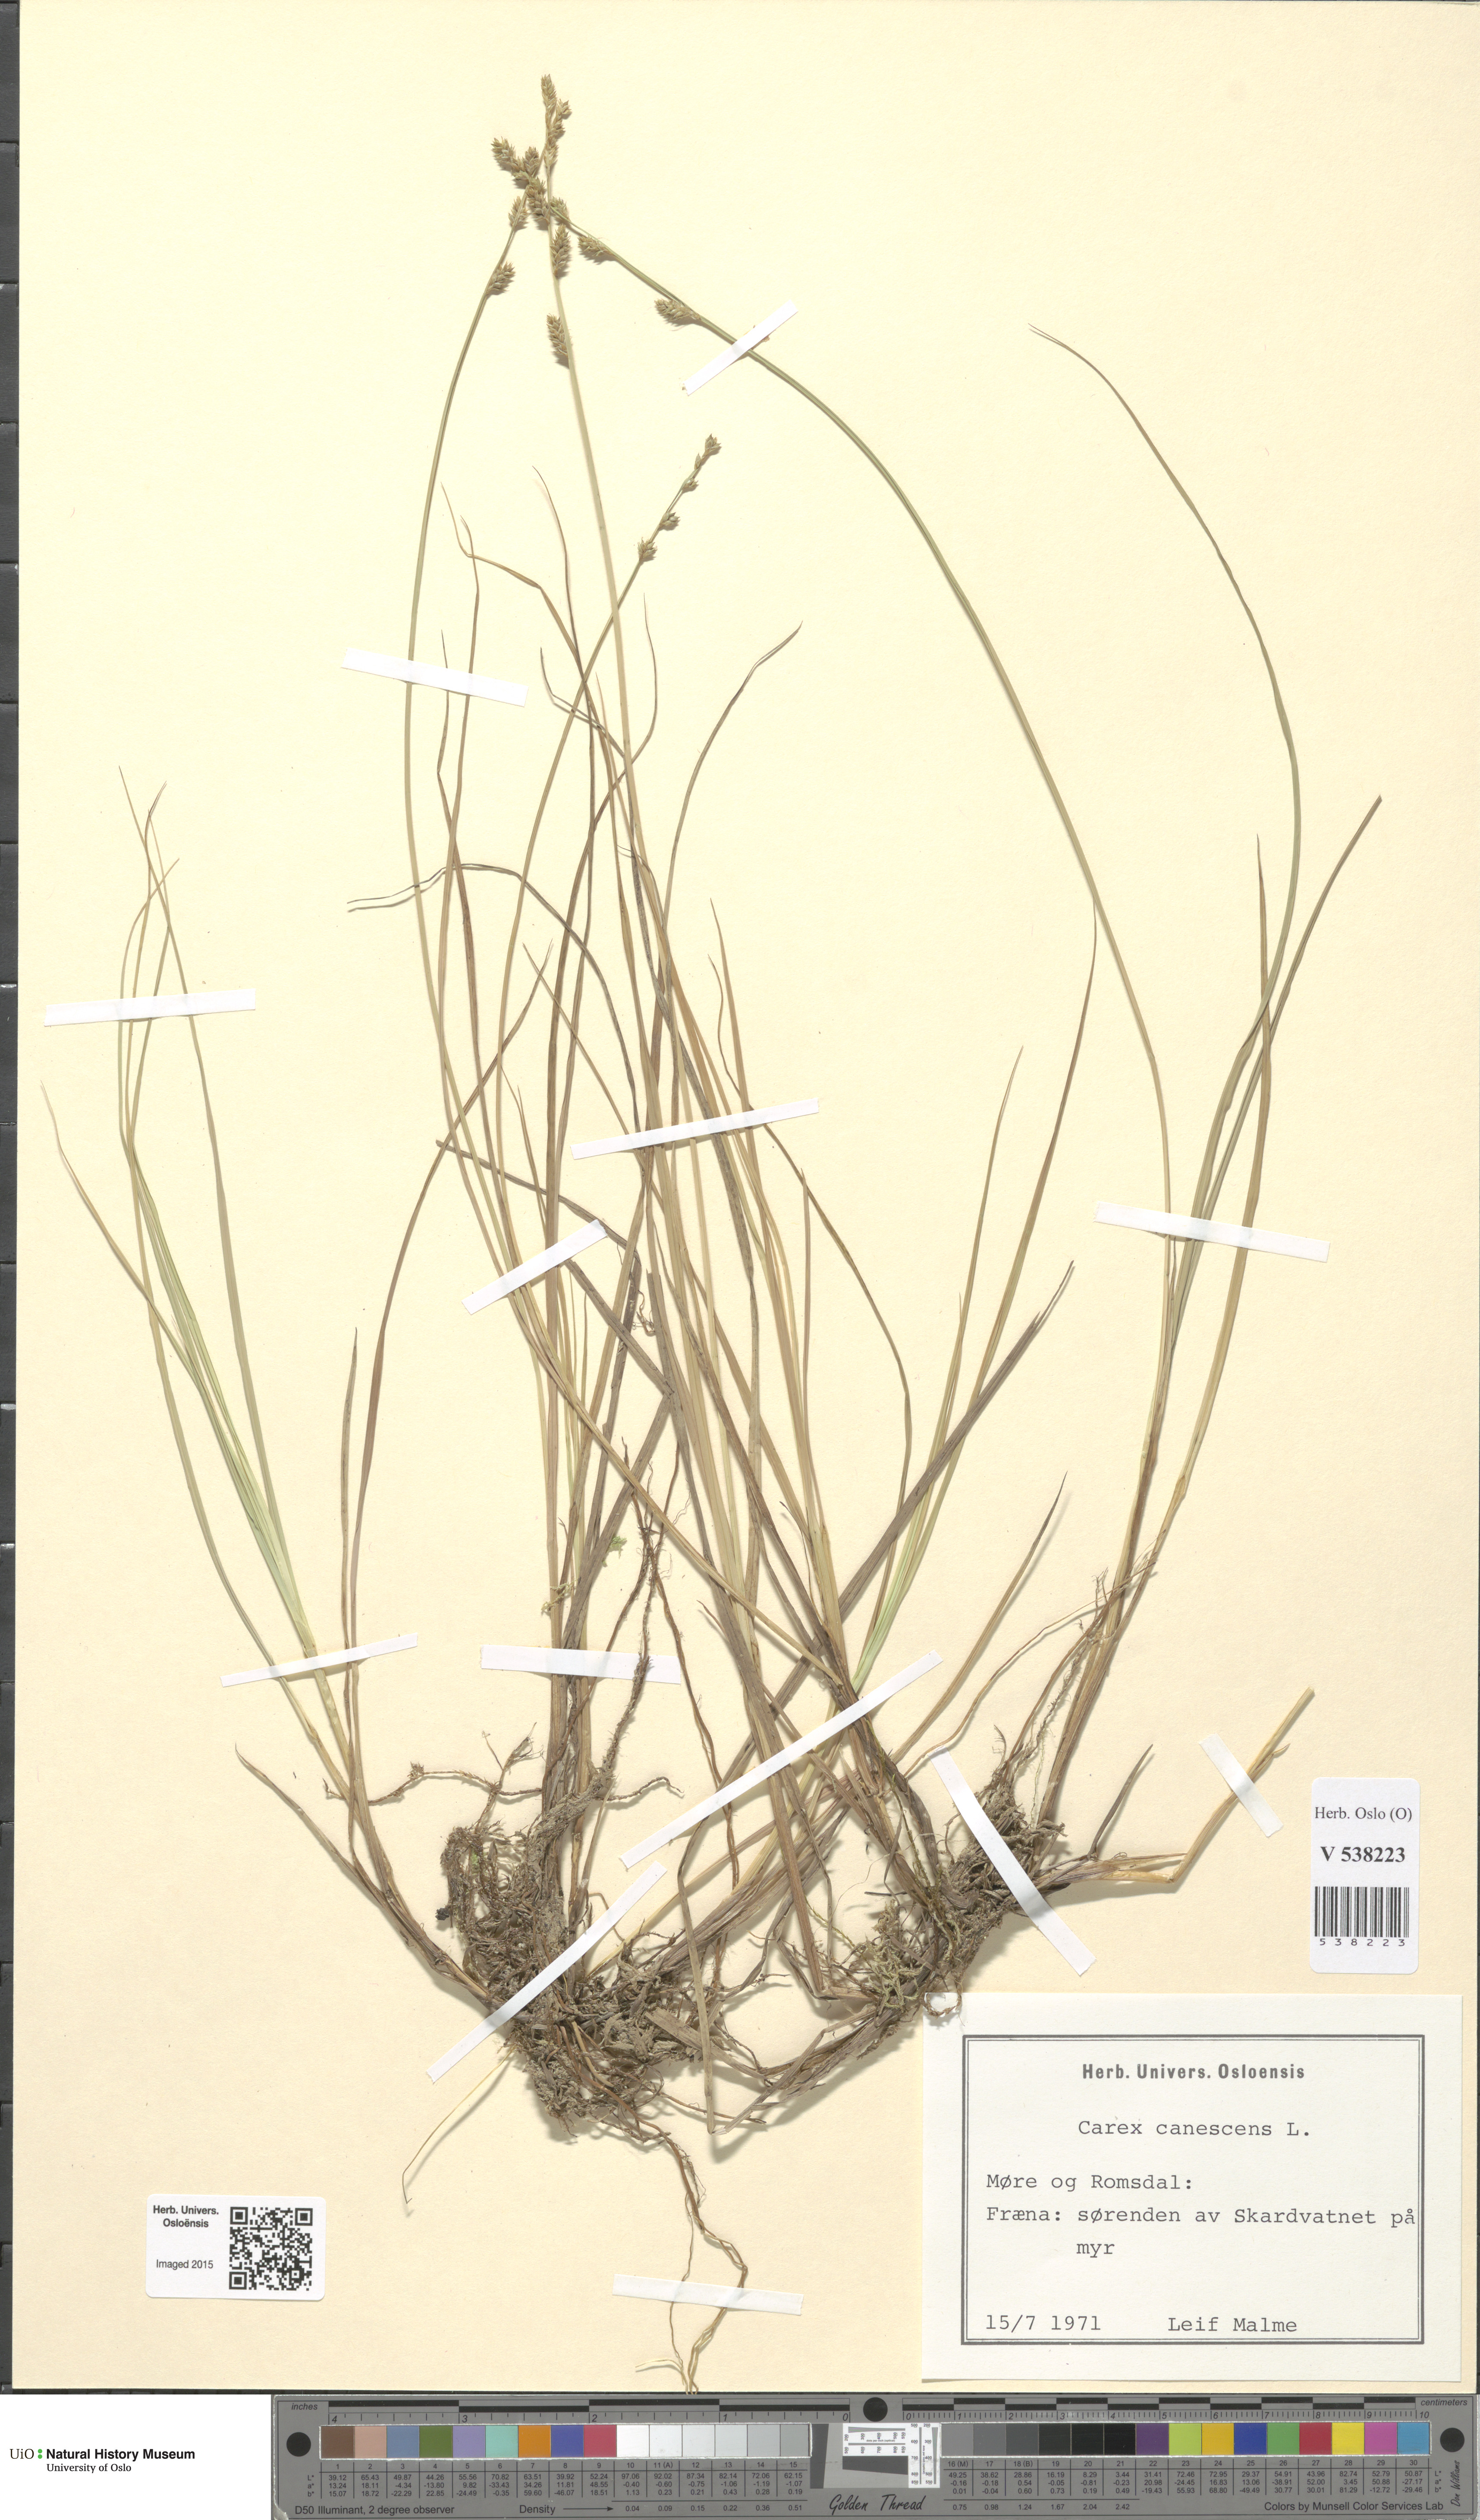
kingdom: Plantae
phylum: Tracheophyta
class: Liliopsida
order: Poales
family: Cyperaceae
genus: Carex
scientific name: Carex canescens
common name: White sedge
